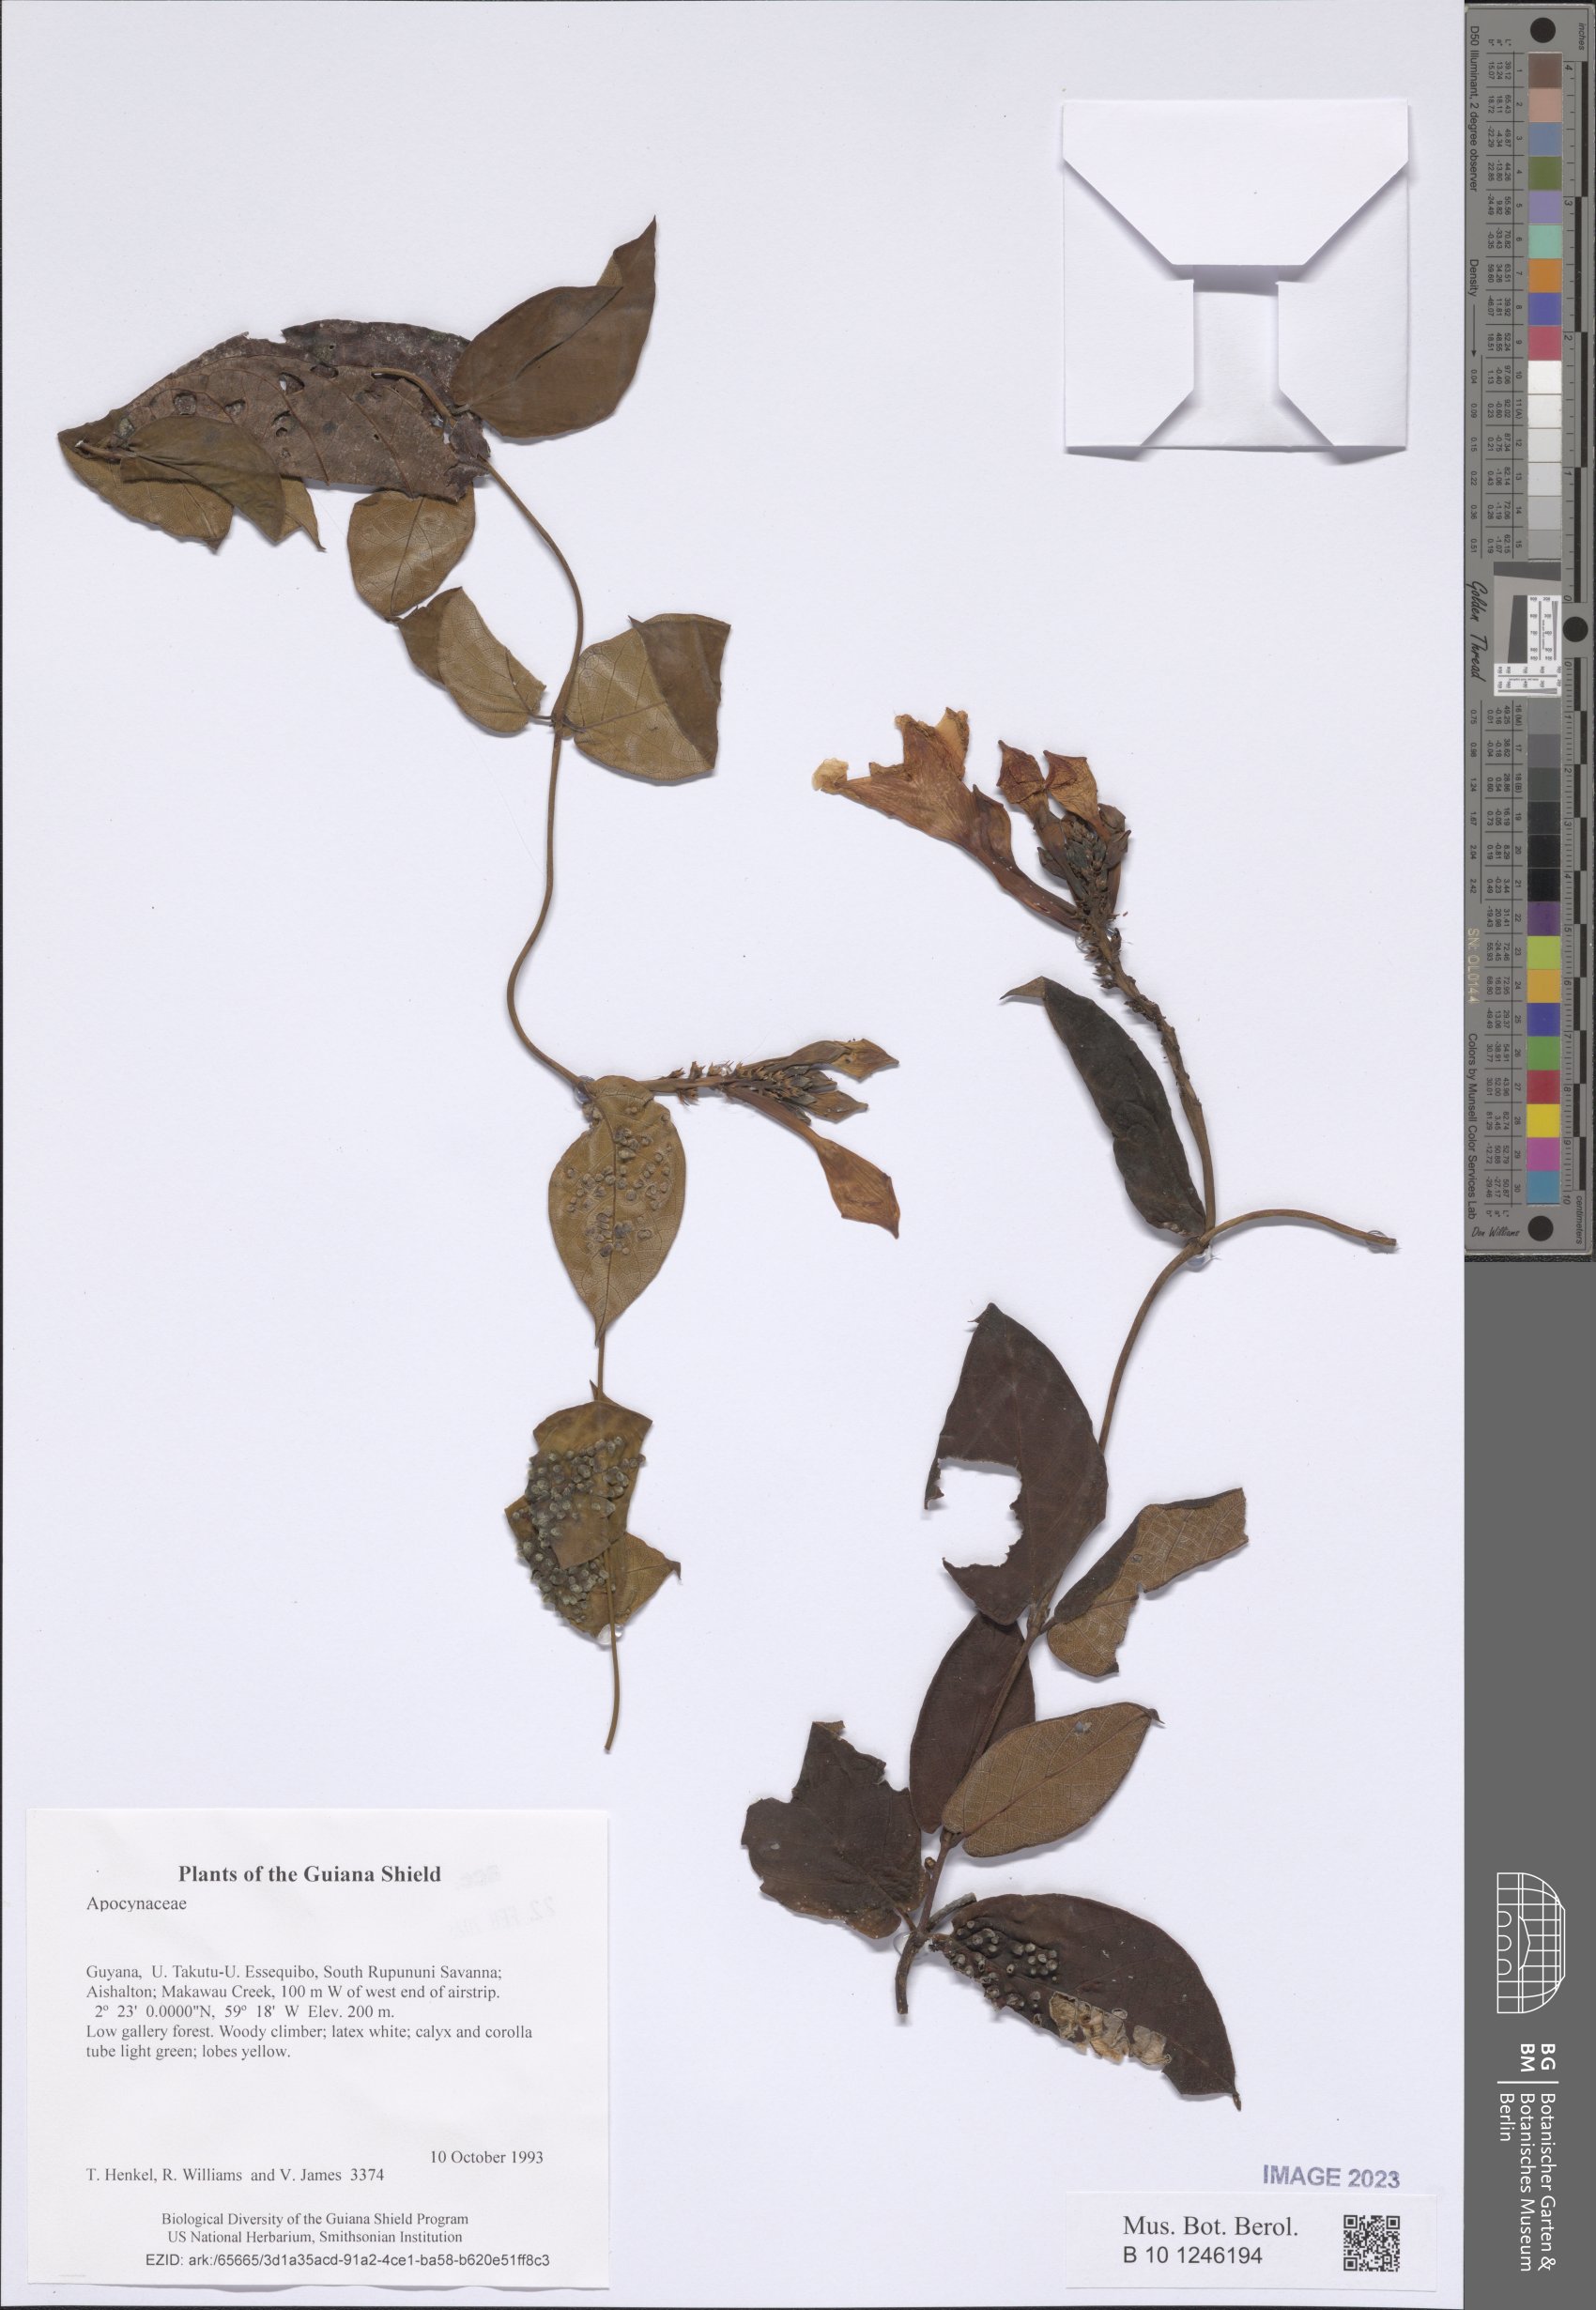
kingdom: Plantae
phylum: Tracheophyta
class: Magnoliopsida
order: Gentianales
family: Apocynaceae
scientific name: Apocynaceae
